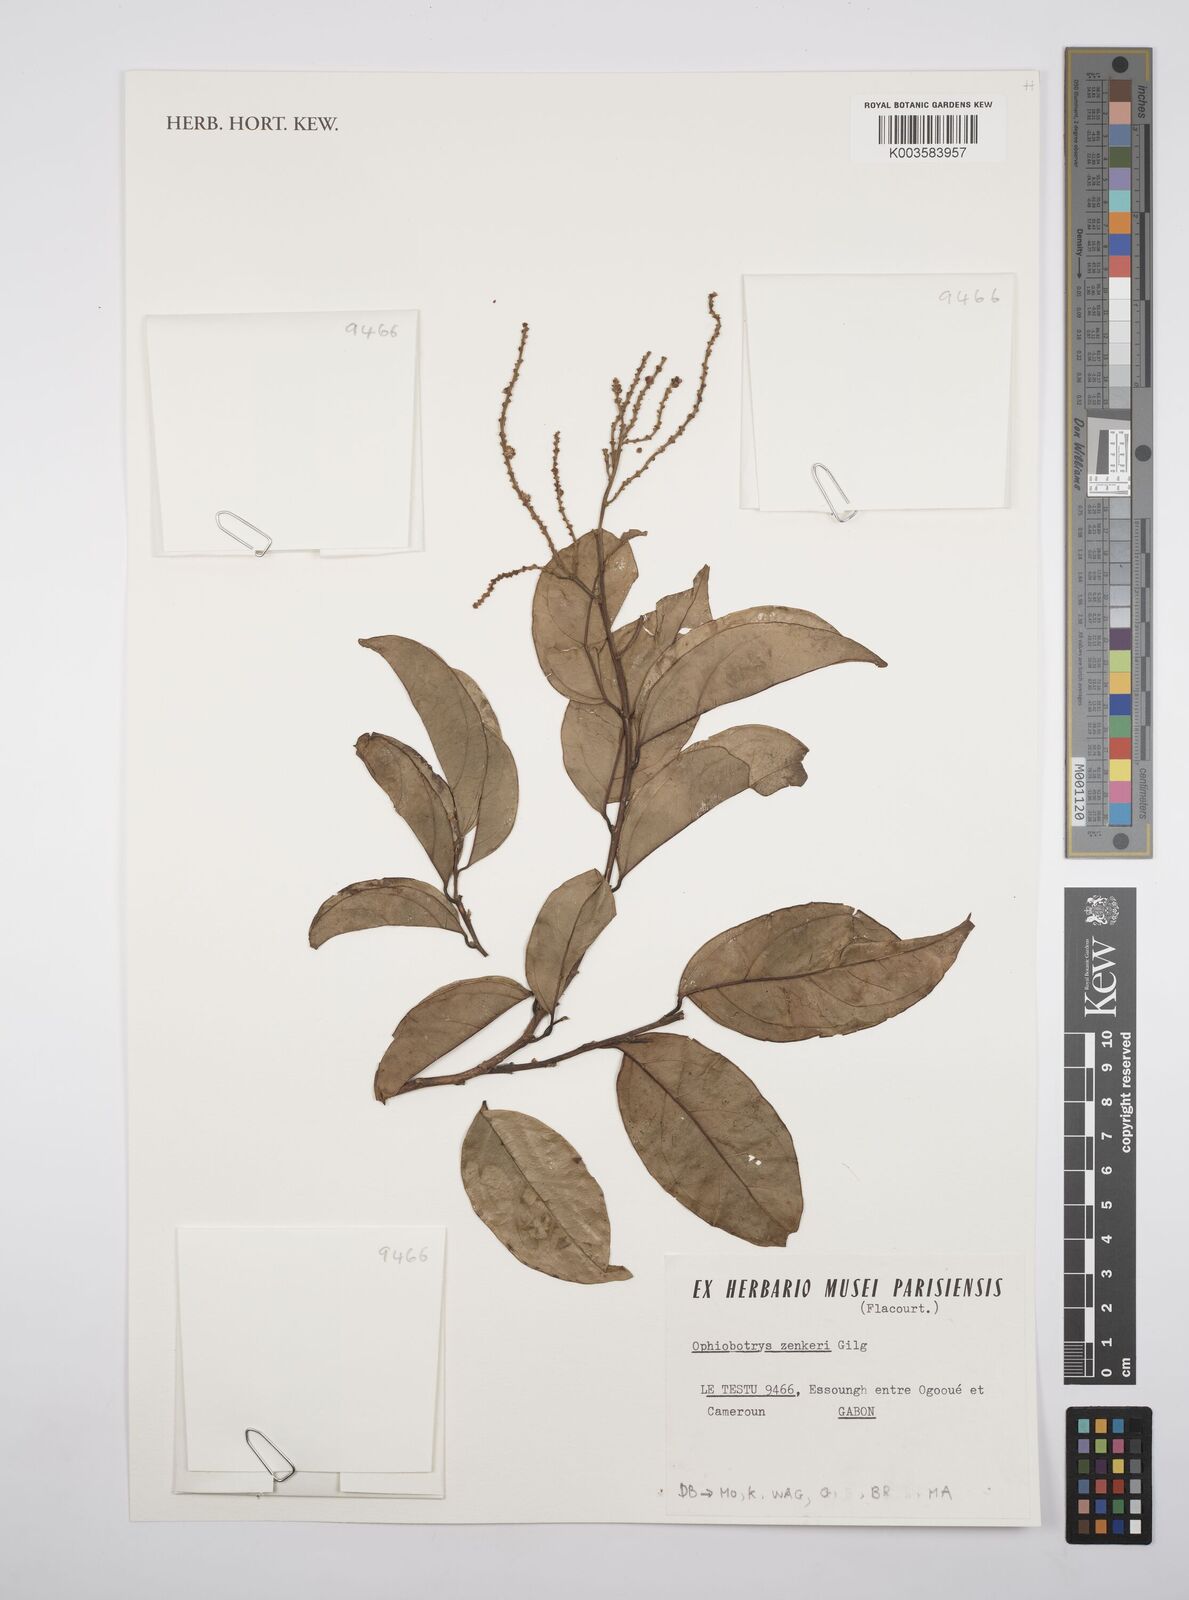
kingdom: Plantae
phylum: Tracheophyta
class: Magnoliopsida
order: Malpighiales
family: Salicaceae
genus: Ophiobotrys
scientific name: Ophiobotrys zenkeri
